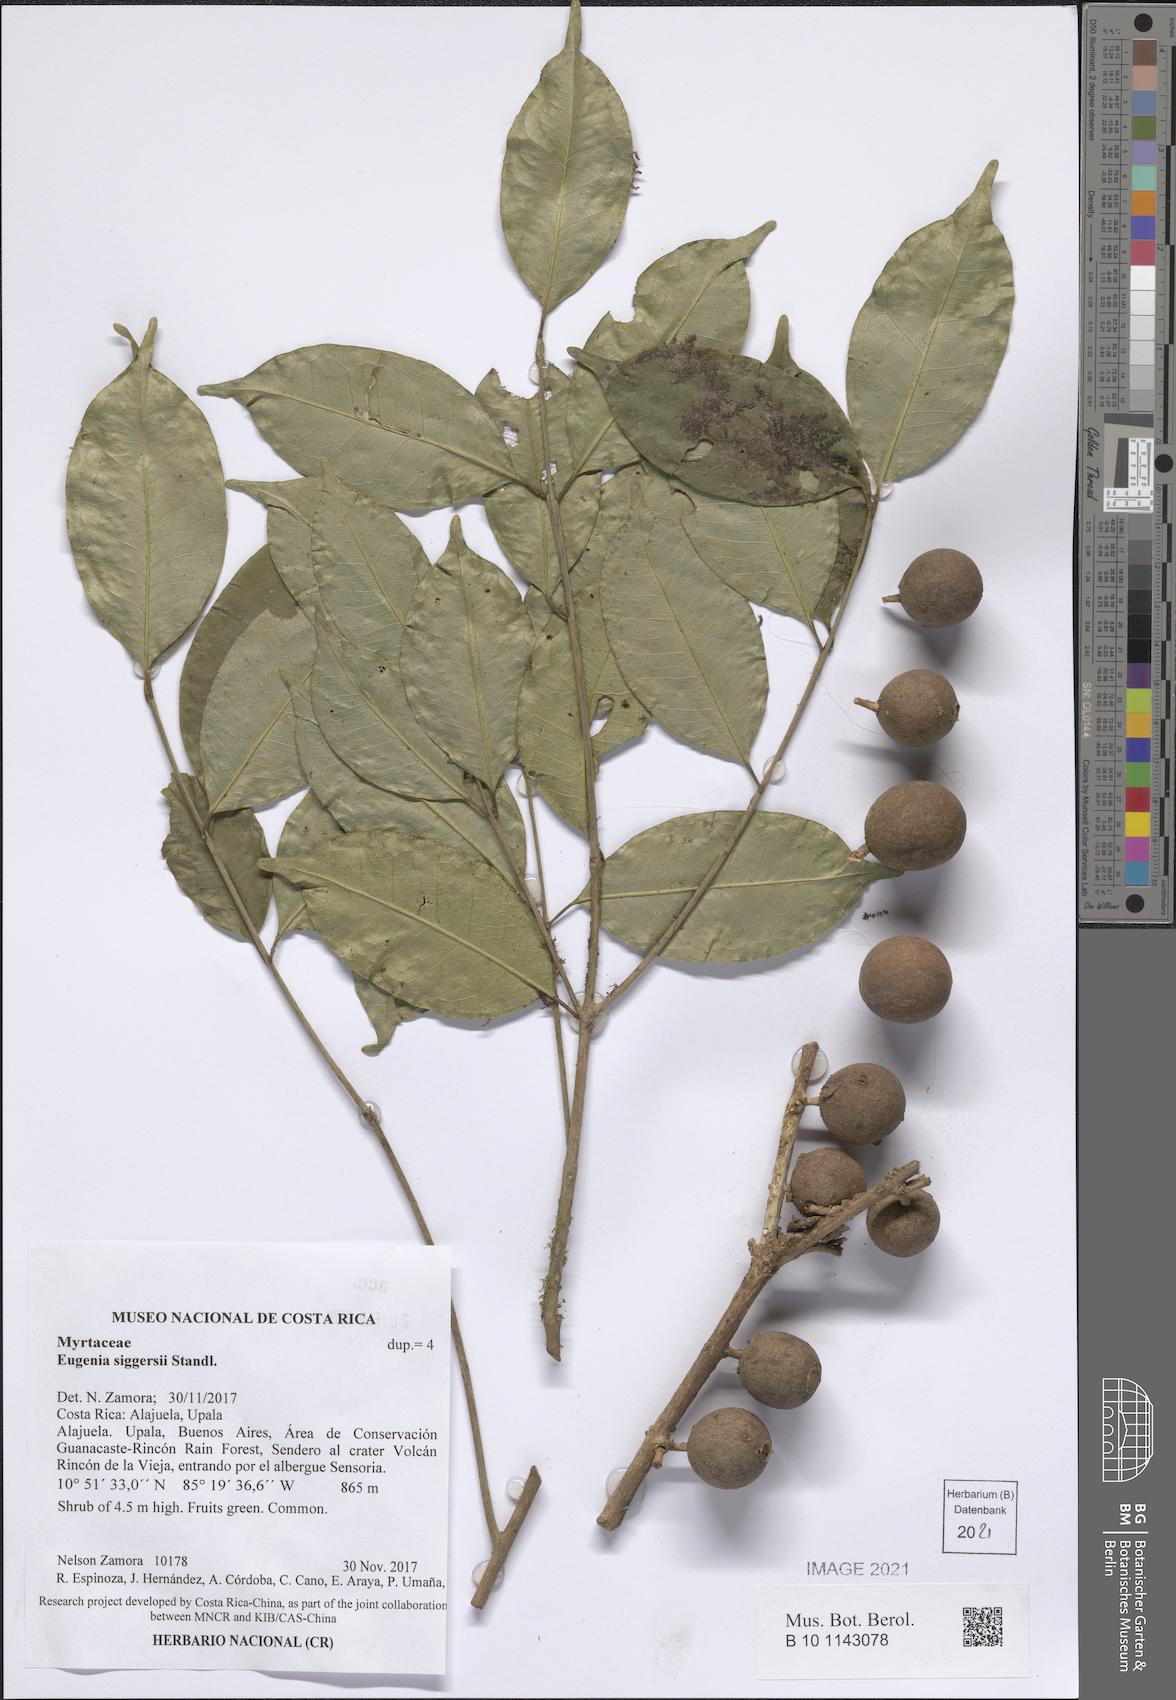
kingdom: Plantae
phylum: Tracheophyta
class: Magnoliopsida
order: Myrtales
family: Myrtaceae
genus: Eugenia
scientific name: Eugenia siggersii
